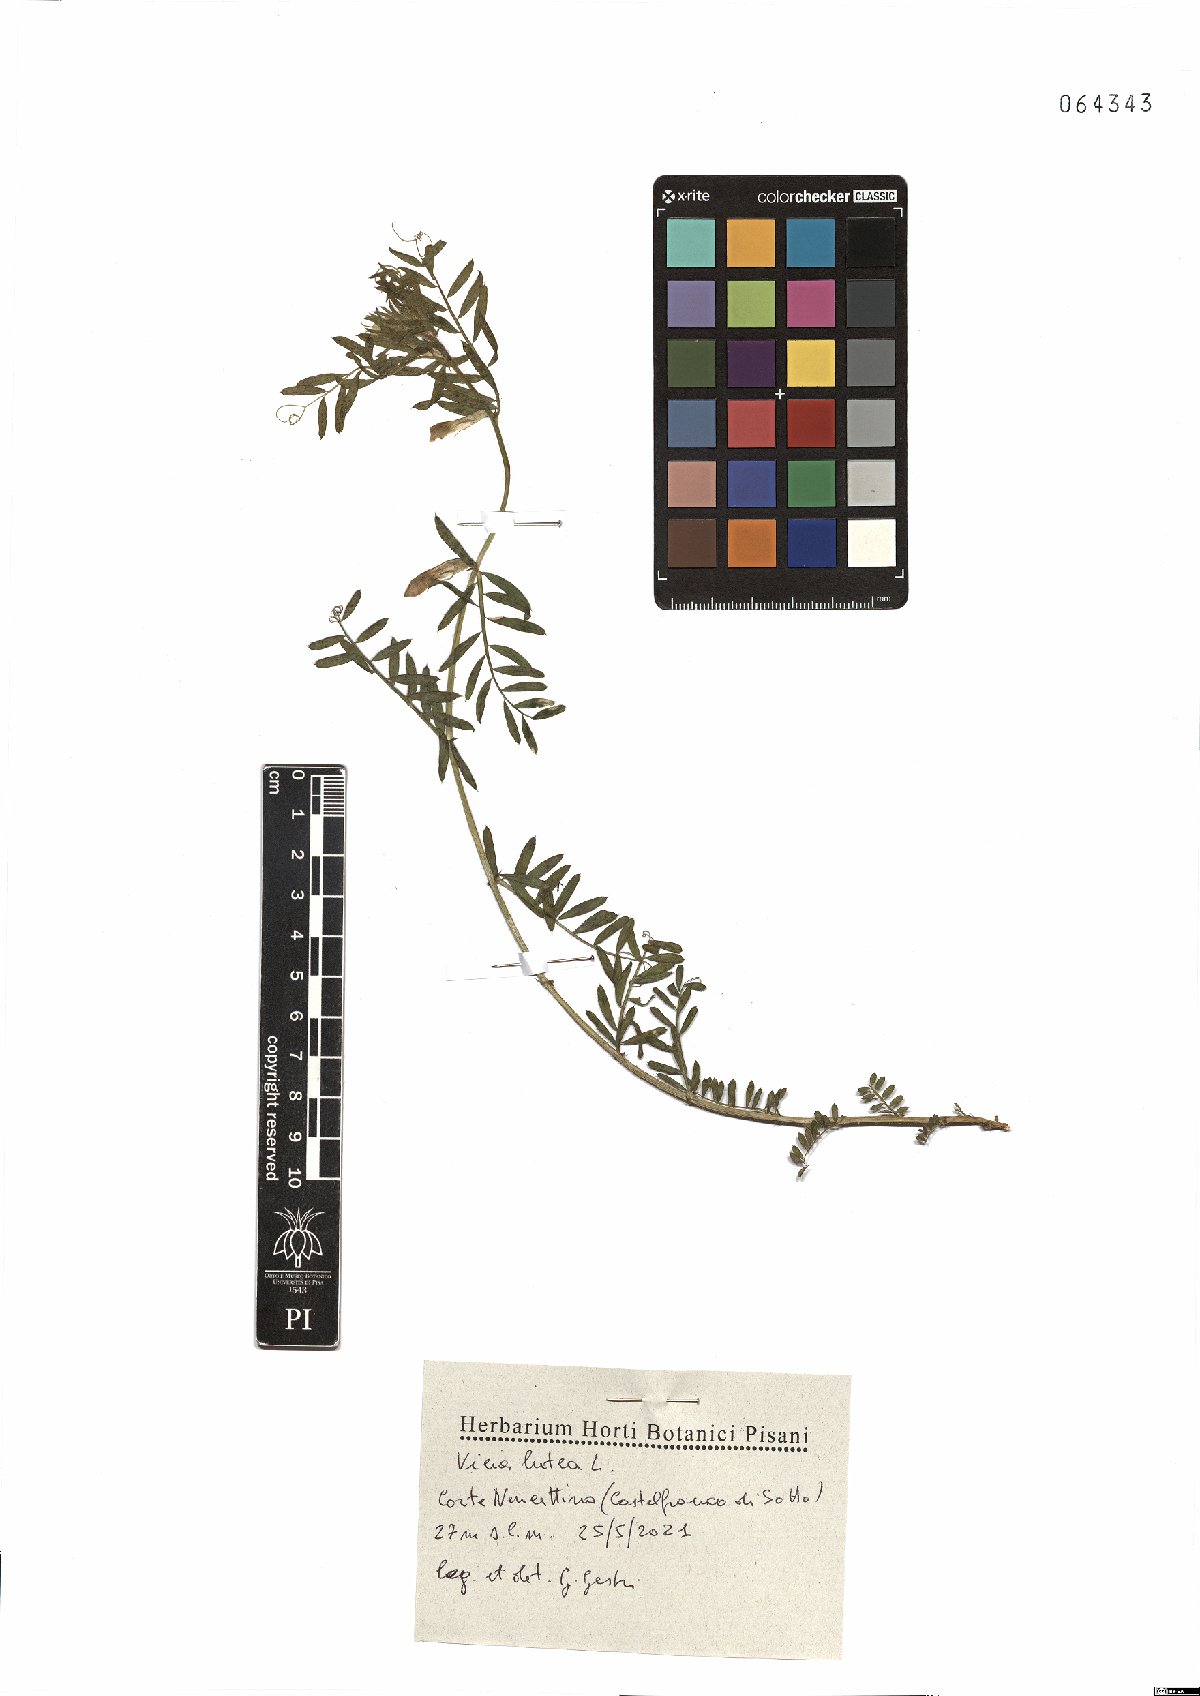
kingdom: Plantae
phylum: Tracheophyta
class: Magnoliopsida
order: Fabales
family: Fabaceae
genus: Vicia
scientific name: Vicia lutea
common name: Smooth yellow vetch
